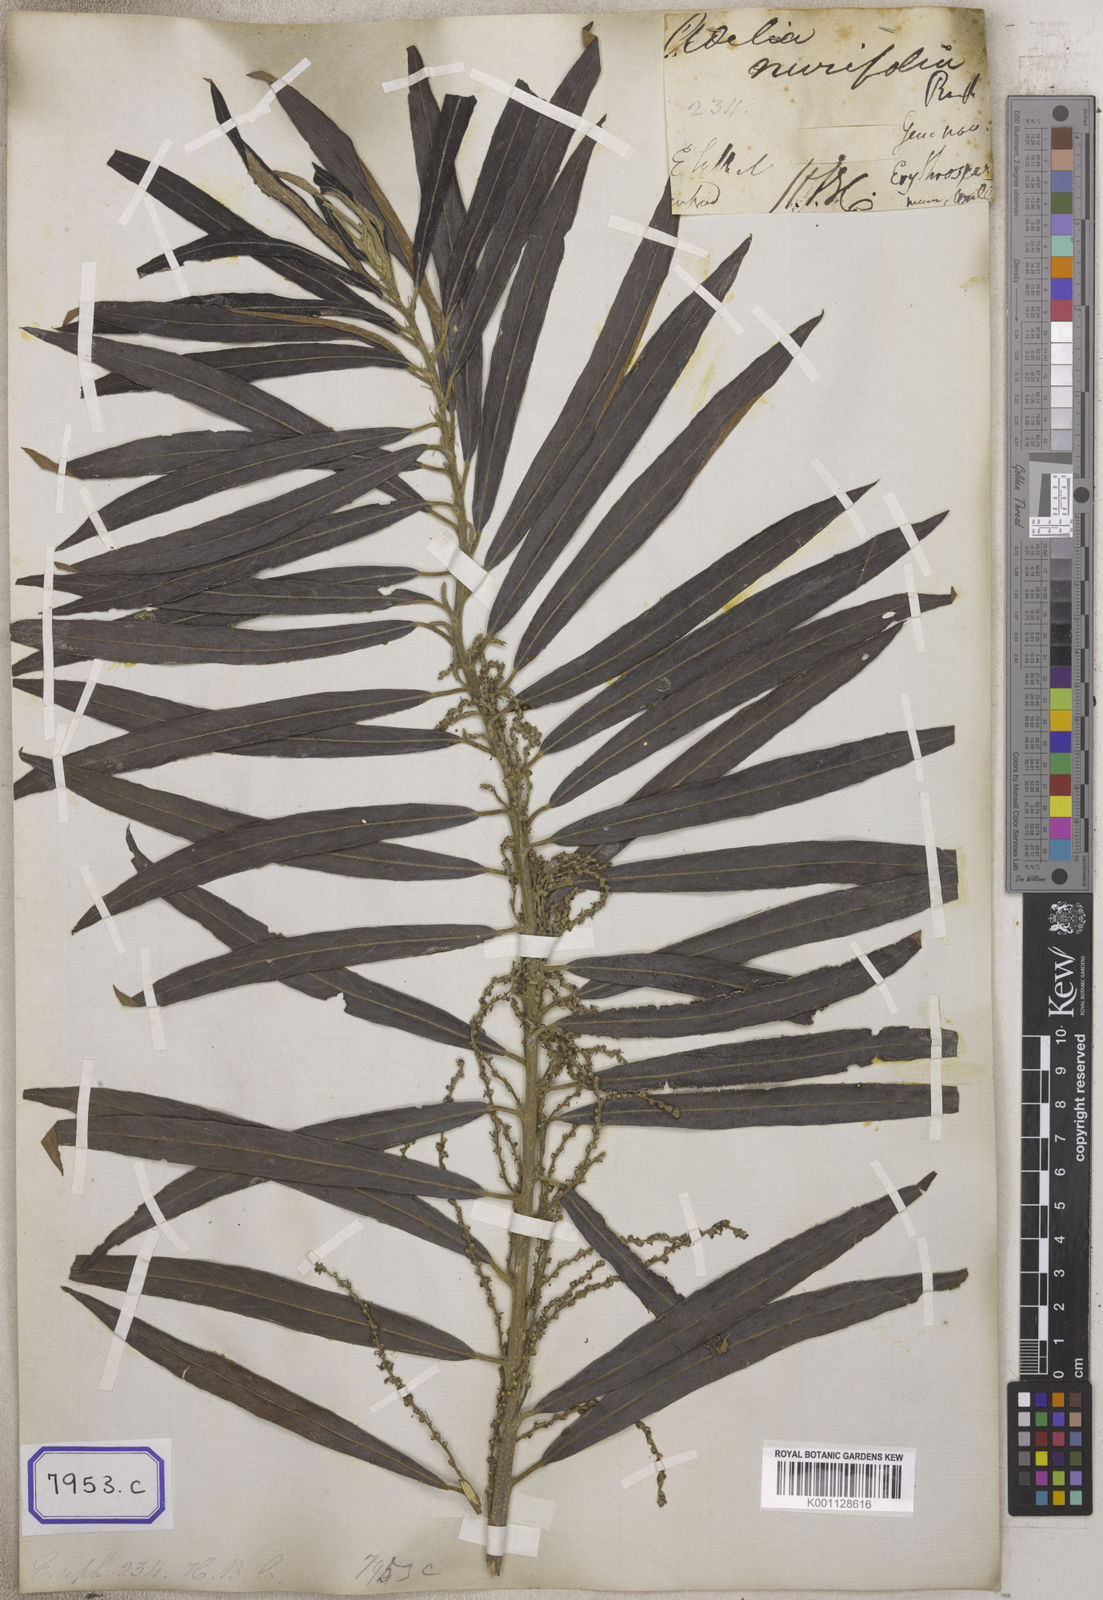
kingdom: Plantae
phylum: Tracheophyta
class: Magnoliopsida
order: Malpighiales
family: Euphorbiaceae
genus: Homonoia
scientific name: Homonoia
